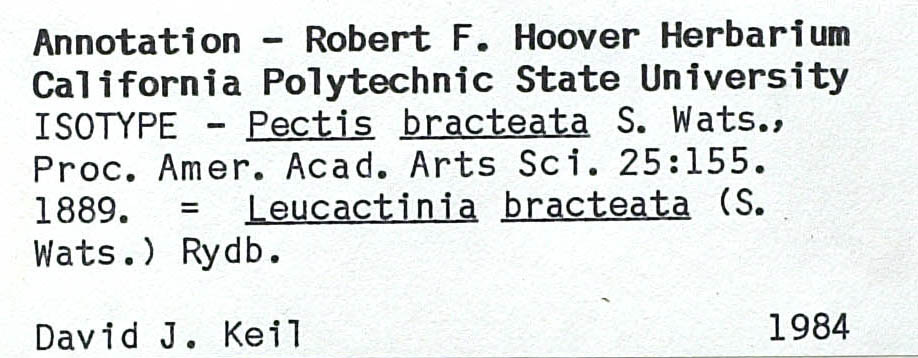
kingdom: Plantae
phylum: Tracheophyta
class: Magnoliopsida
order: Asterales
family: Asteraceae
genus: Leucactinia
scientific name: Leucactinia bracteata
